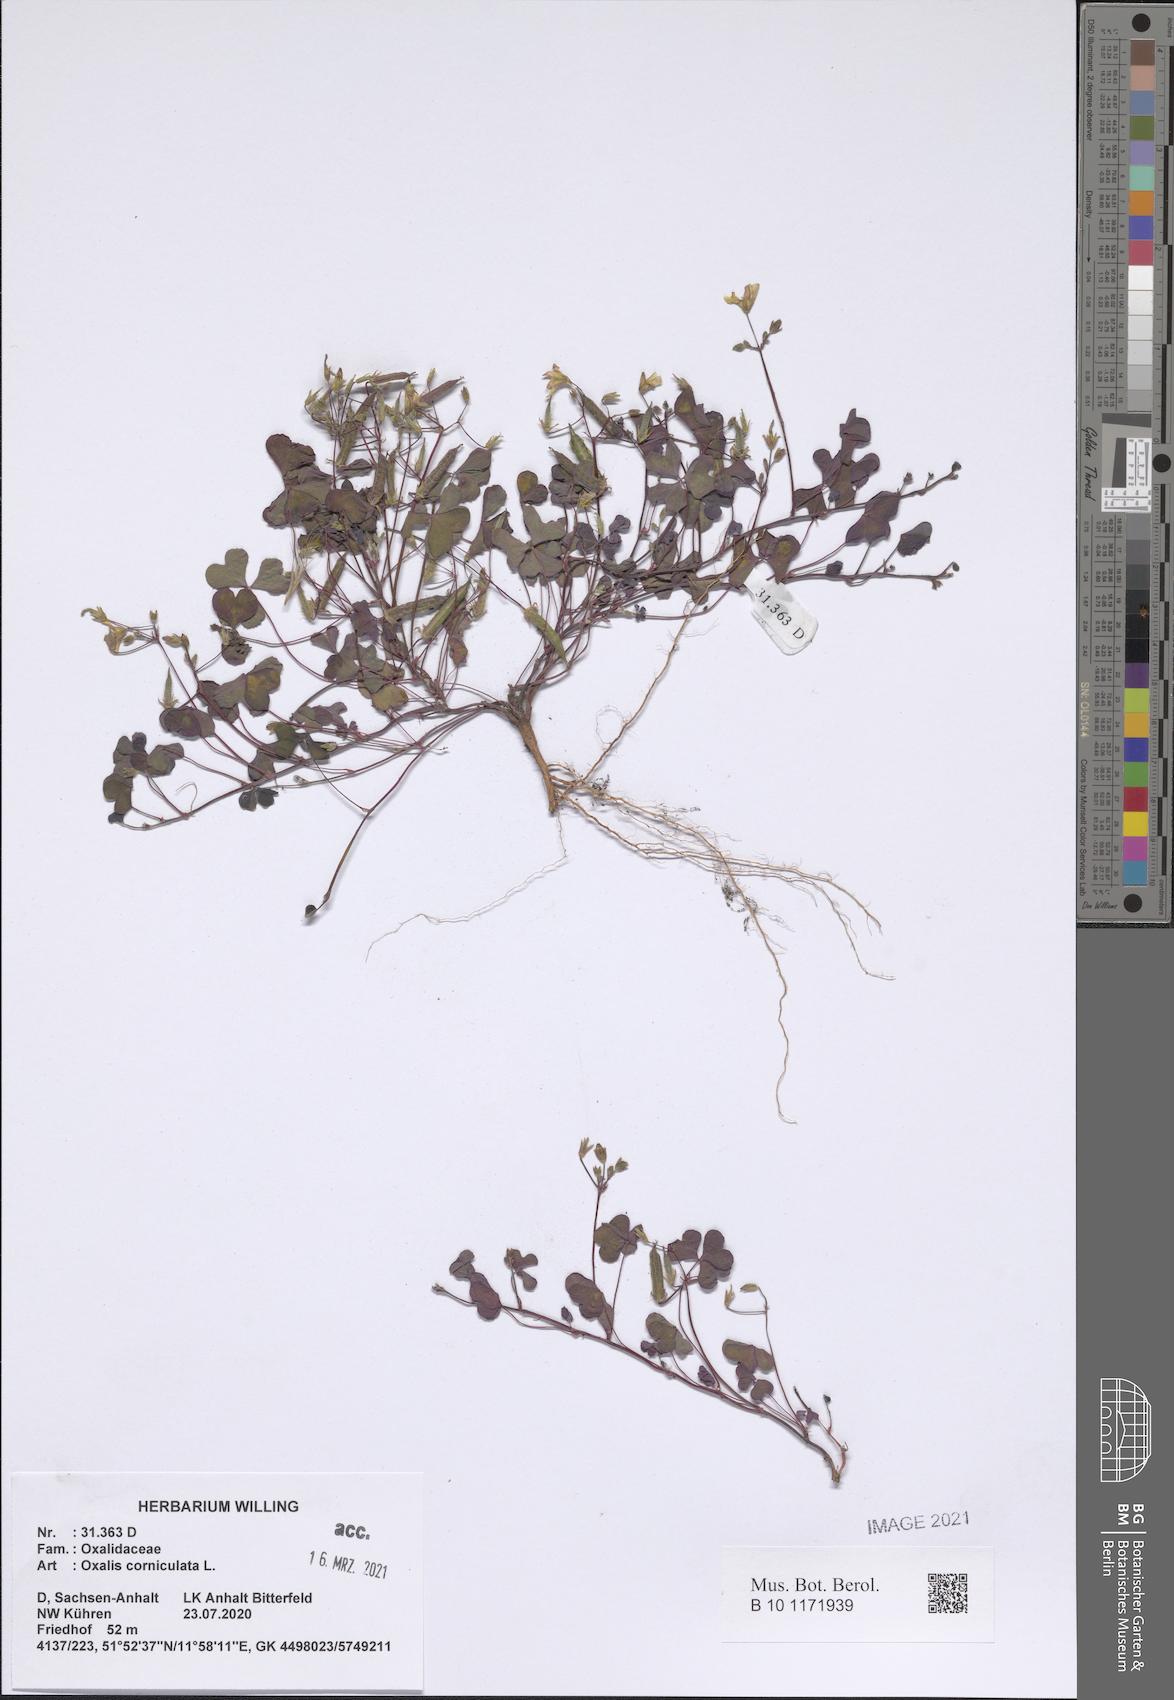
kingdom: Plantae
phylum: Tracheophyta
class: Magnoliopsida
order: Oxalidales
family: Oxalidaceae
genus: Oxalis
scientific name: Oxalis corniculata
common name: Procumbent yellow-sorrel
